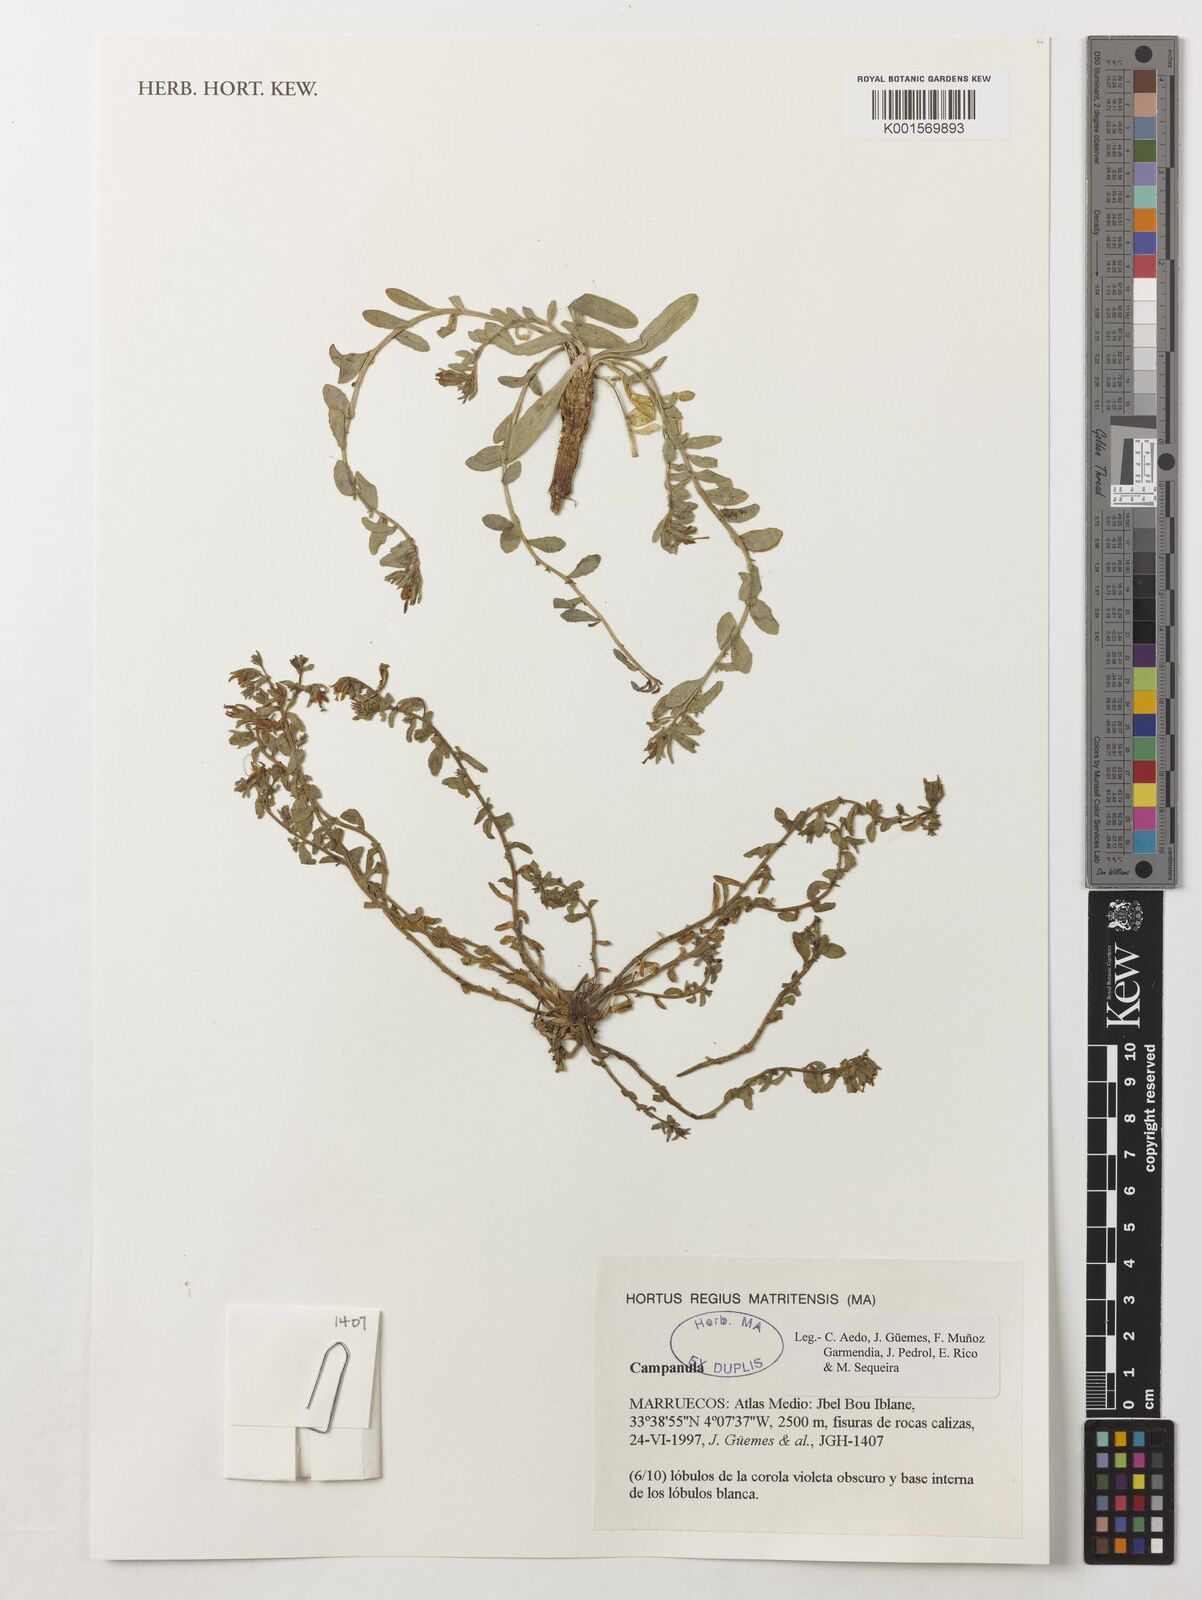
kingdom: Plantae
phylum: Tracheophyta
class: Magnoliopsida
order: Asterales
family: Campanulaceae
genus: Campanula
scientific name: Campanula
